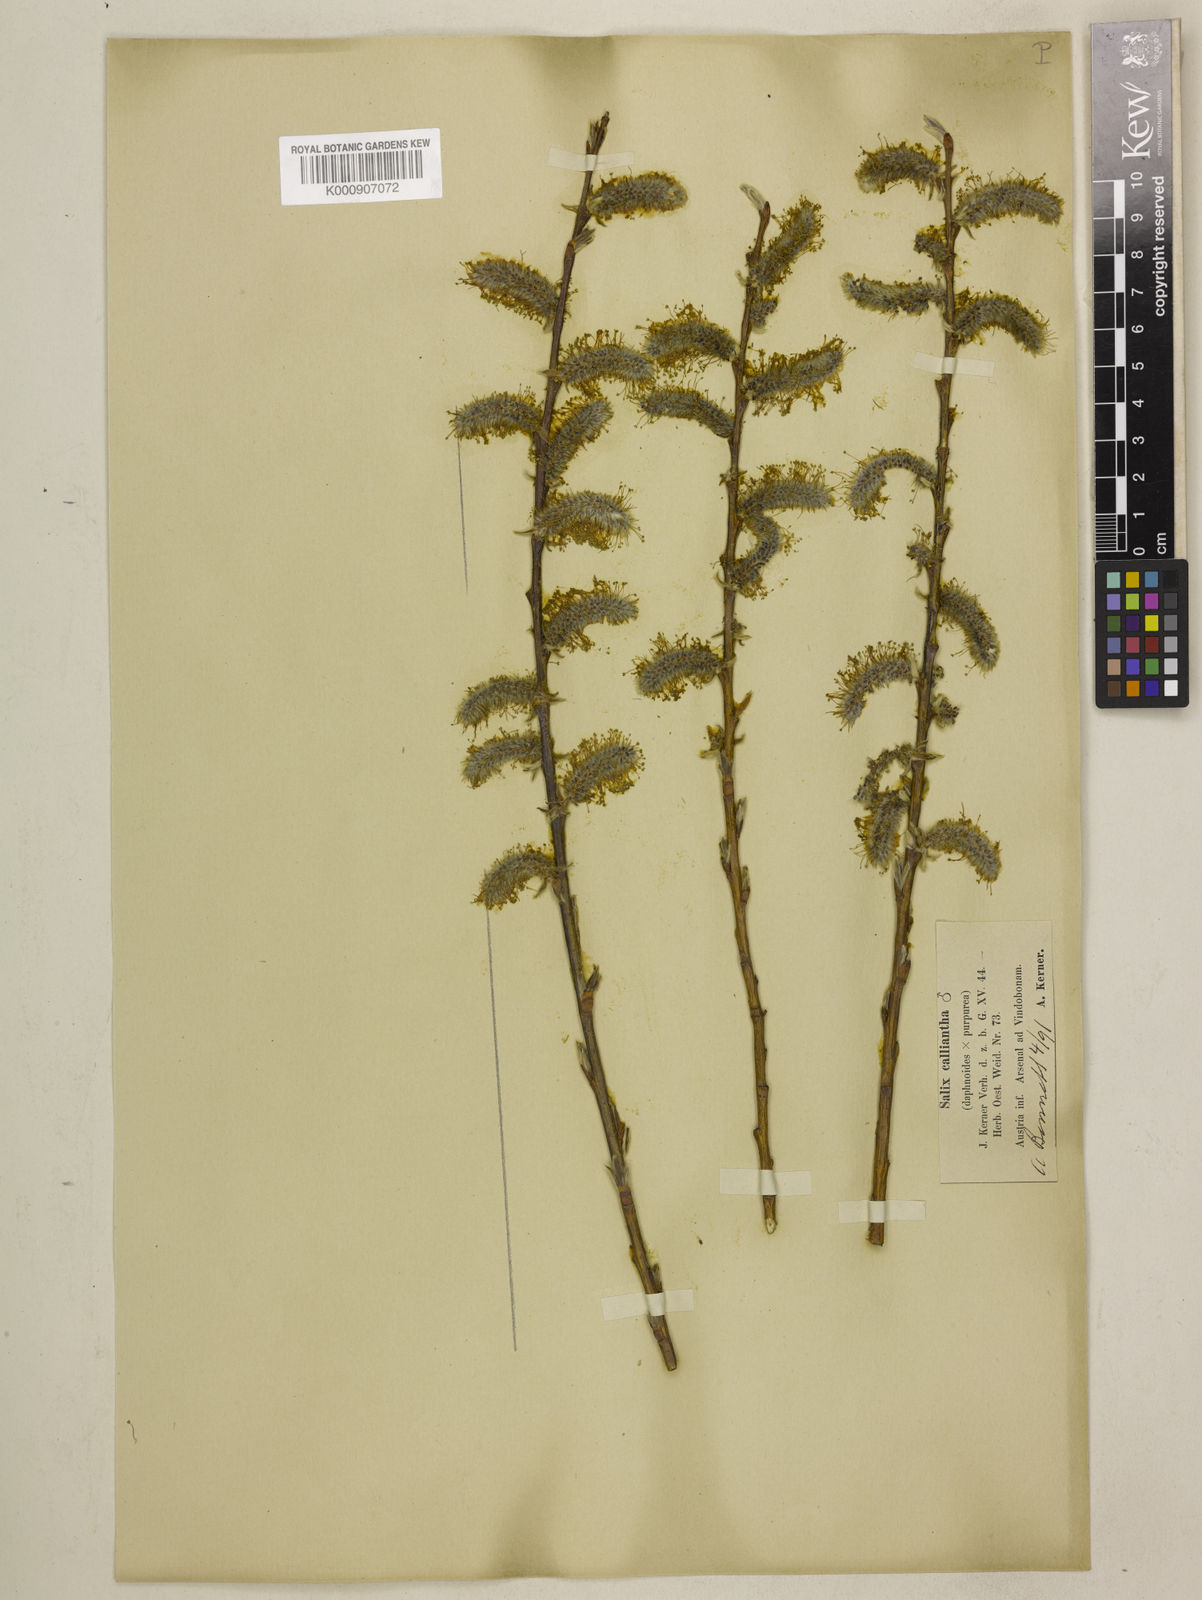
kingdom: Plantae
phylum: Tracheophyta
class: Magnoliopsida
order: Malpighiales
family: Salicaceae
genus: Salix
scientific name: Salix daphnoides
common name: European violet-willow
